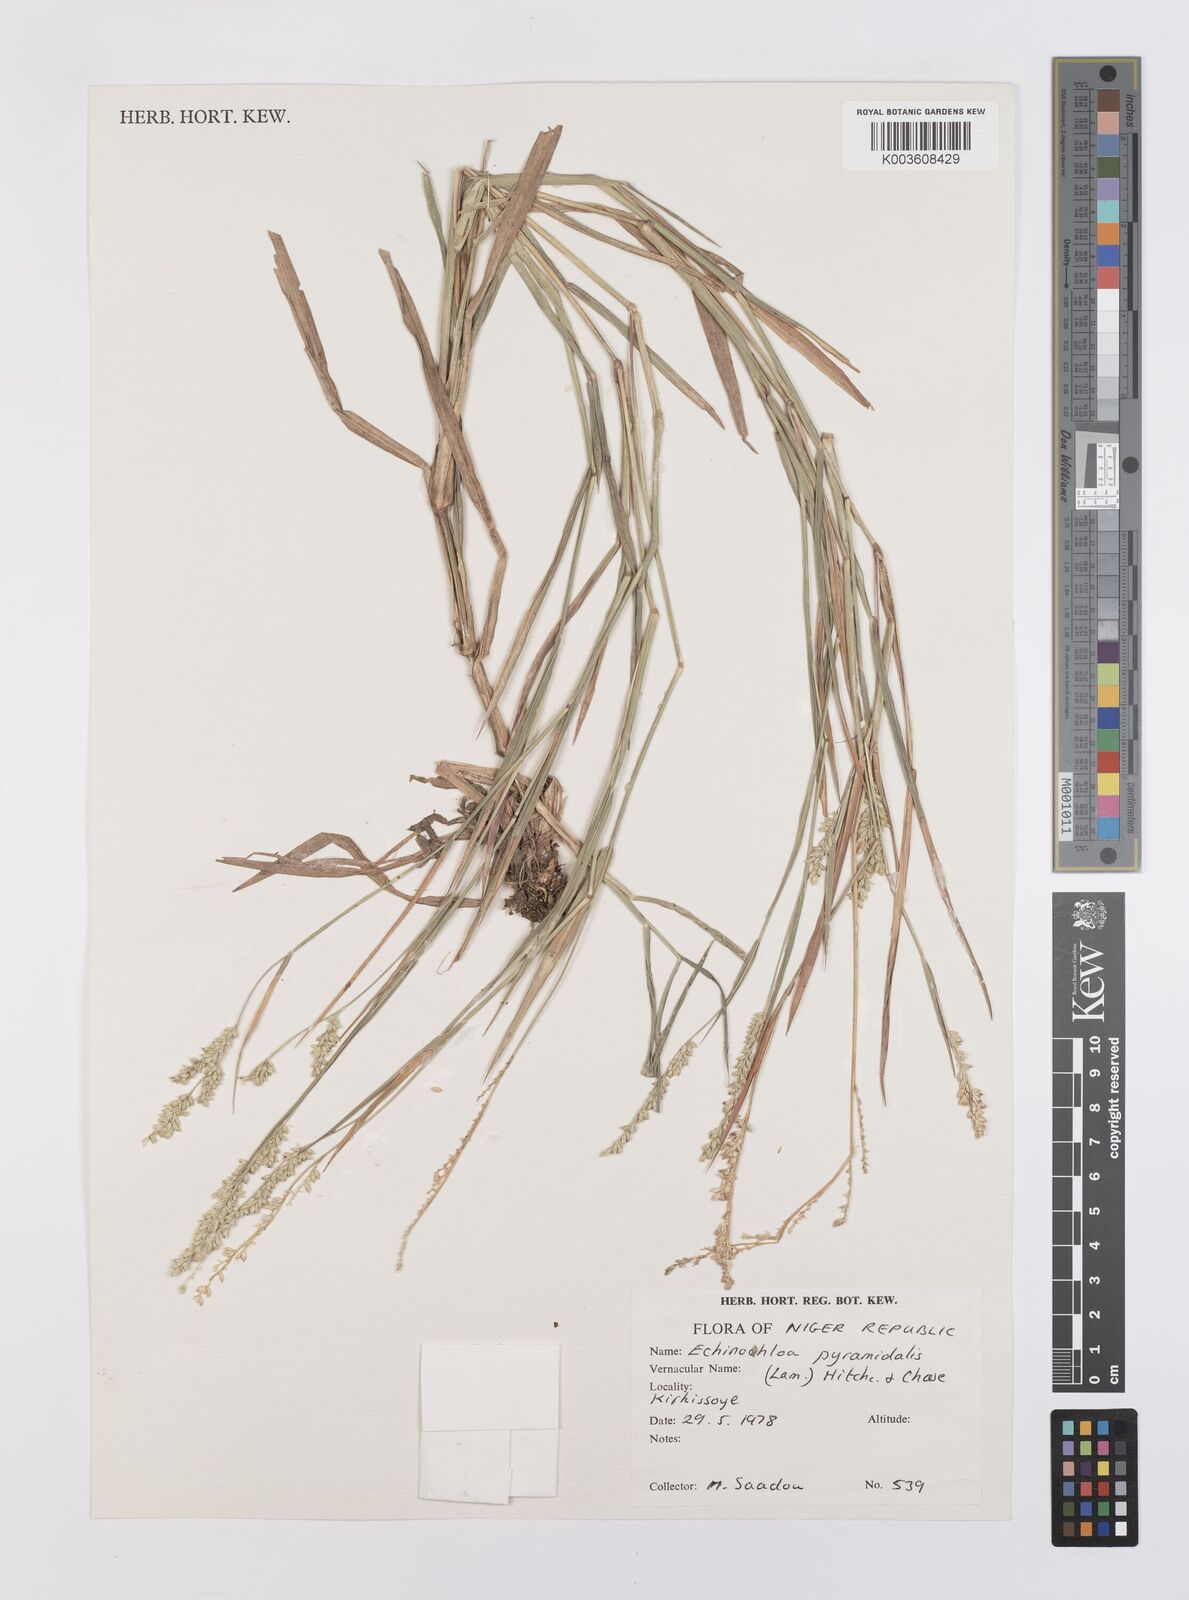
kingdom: Plantae
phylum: Tracheophyta
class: Liliopsida
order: Poales
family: Poaceae
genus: Echinochloa
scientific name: Echinochloa pyramidalis
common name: Antelope grass
